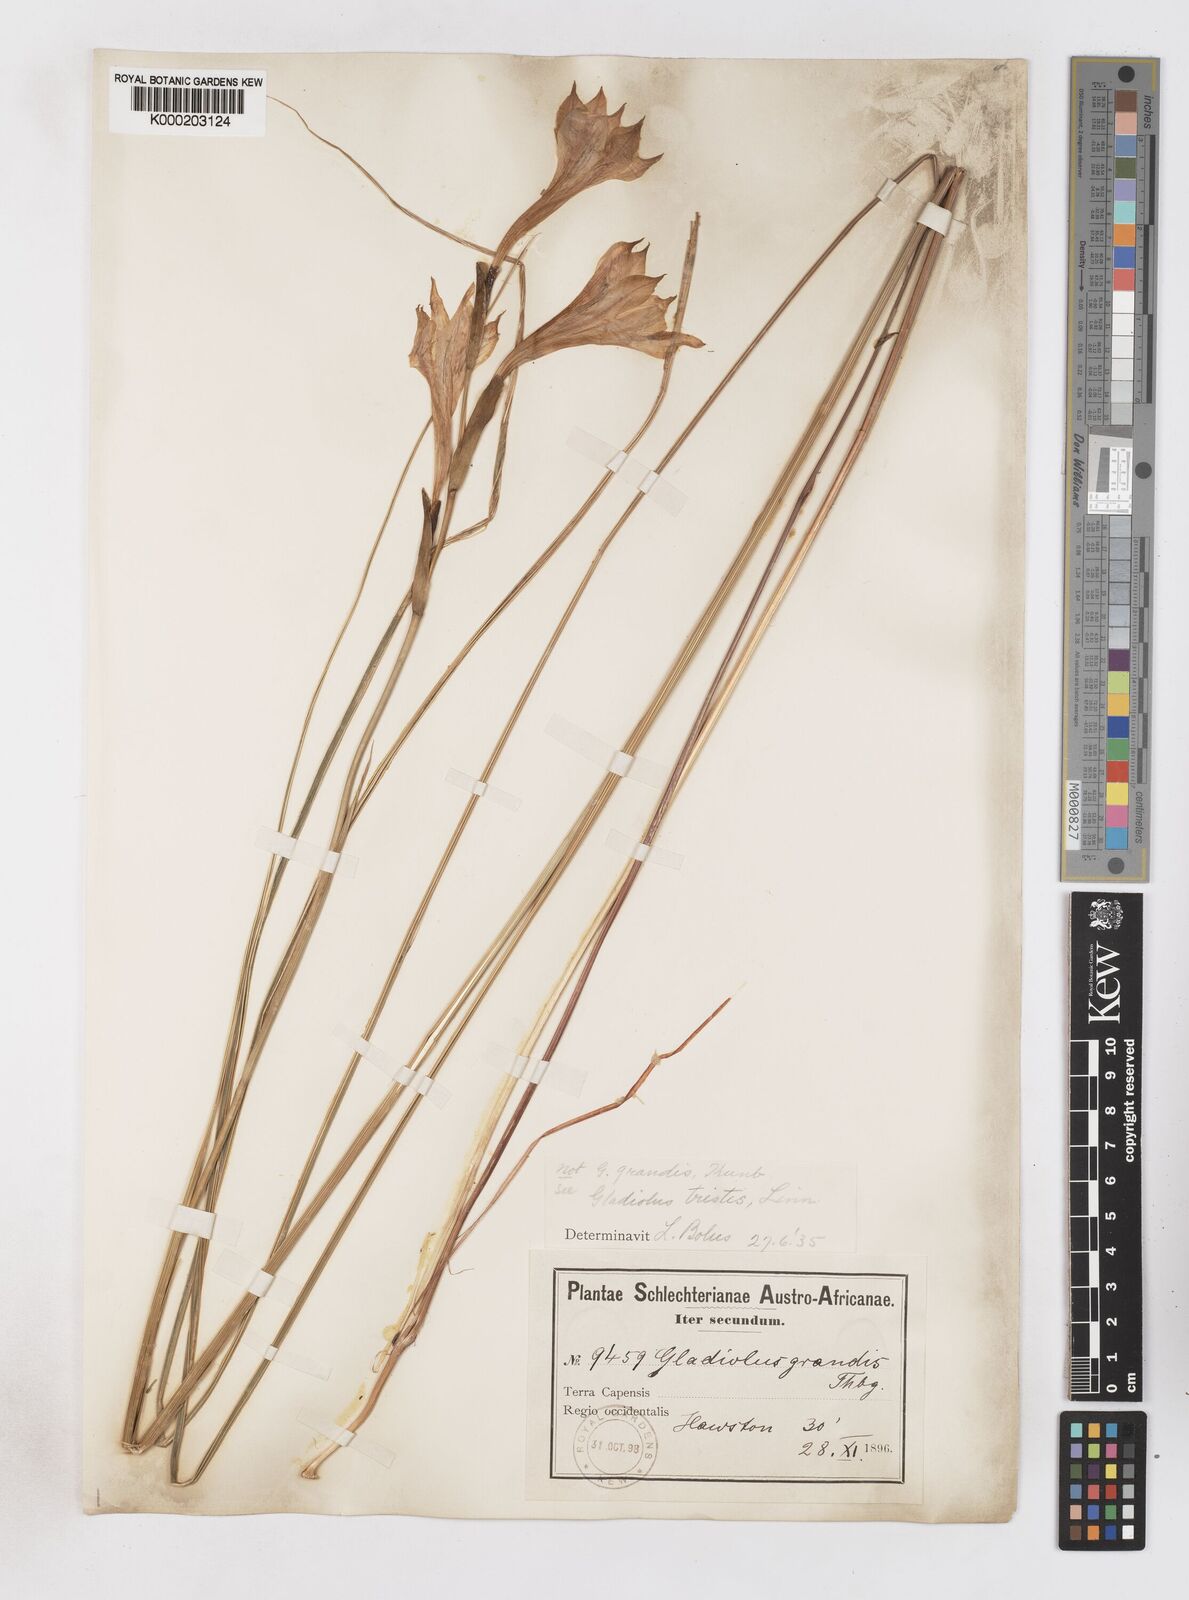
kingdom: Plantae
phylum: Tracheophyta
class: Liliopsida
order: Asparagales
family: Iridaceae
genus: Gladiolus
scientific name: Gladiolus tristis
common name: Ever-flowering gladiolus
